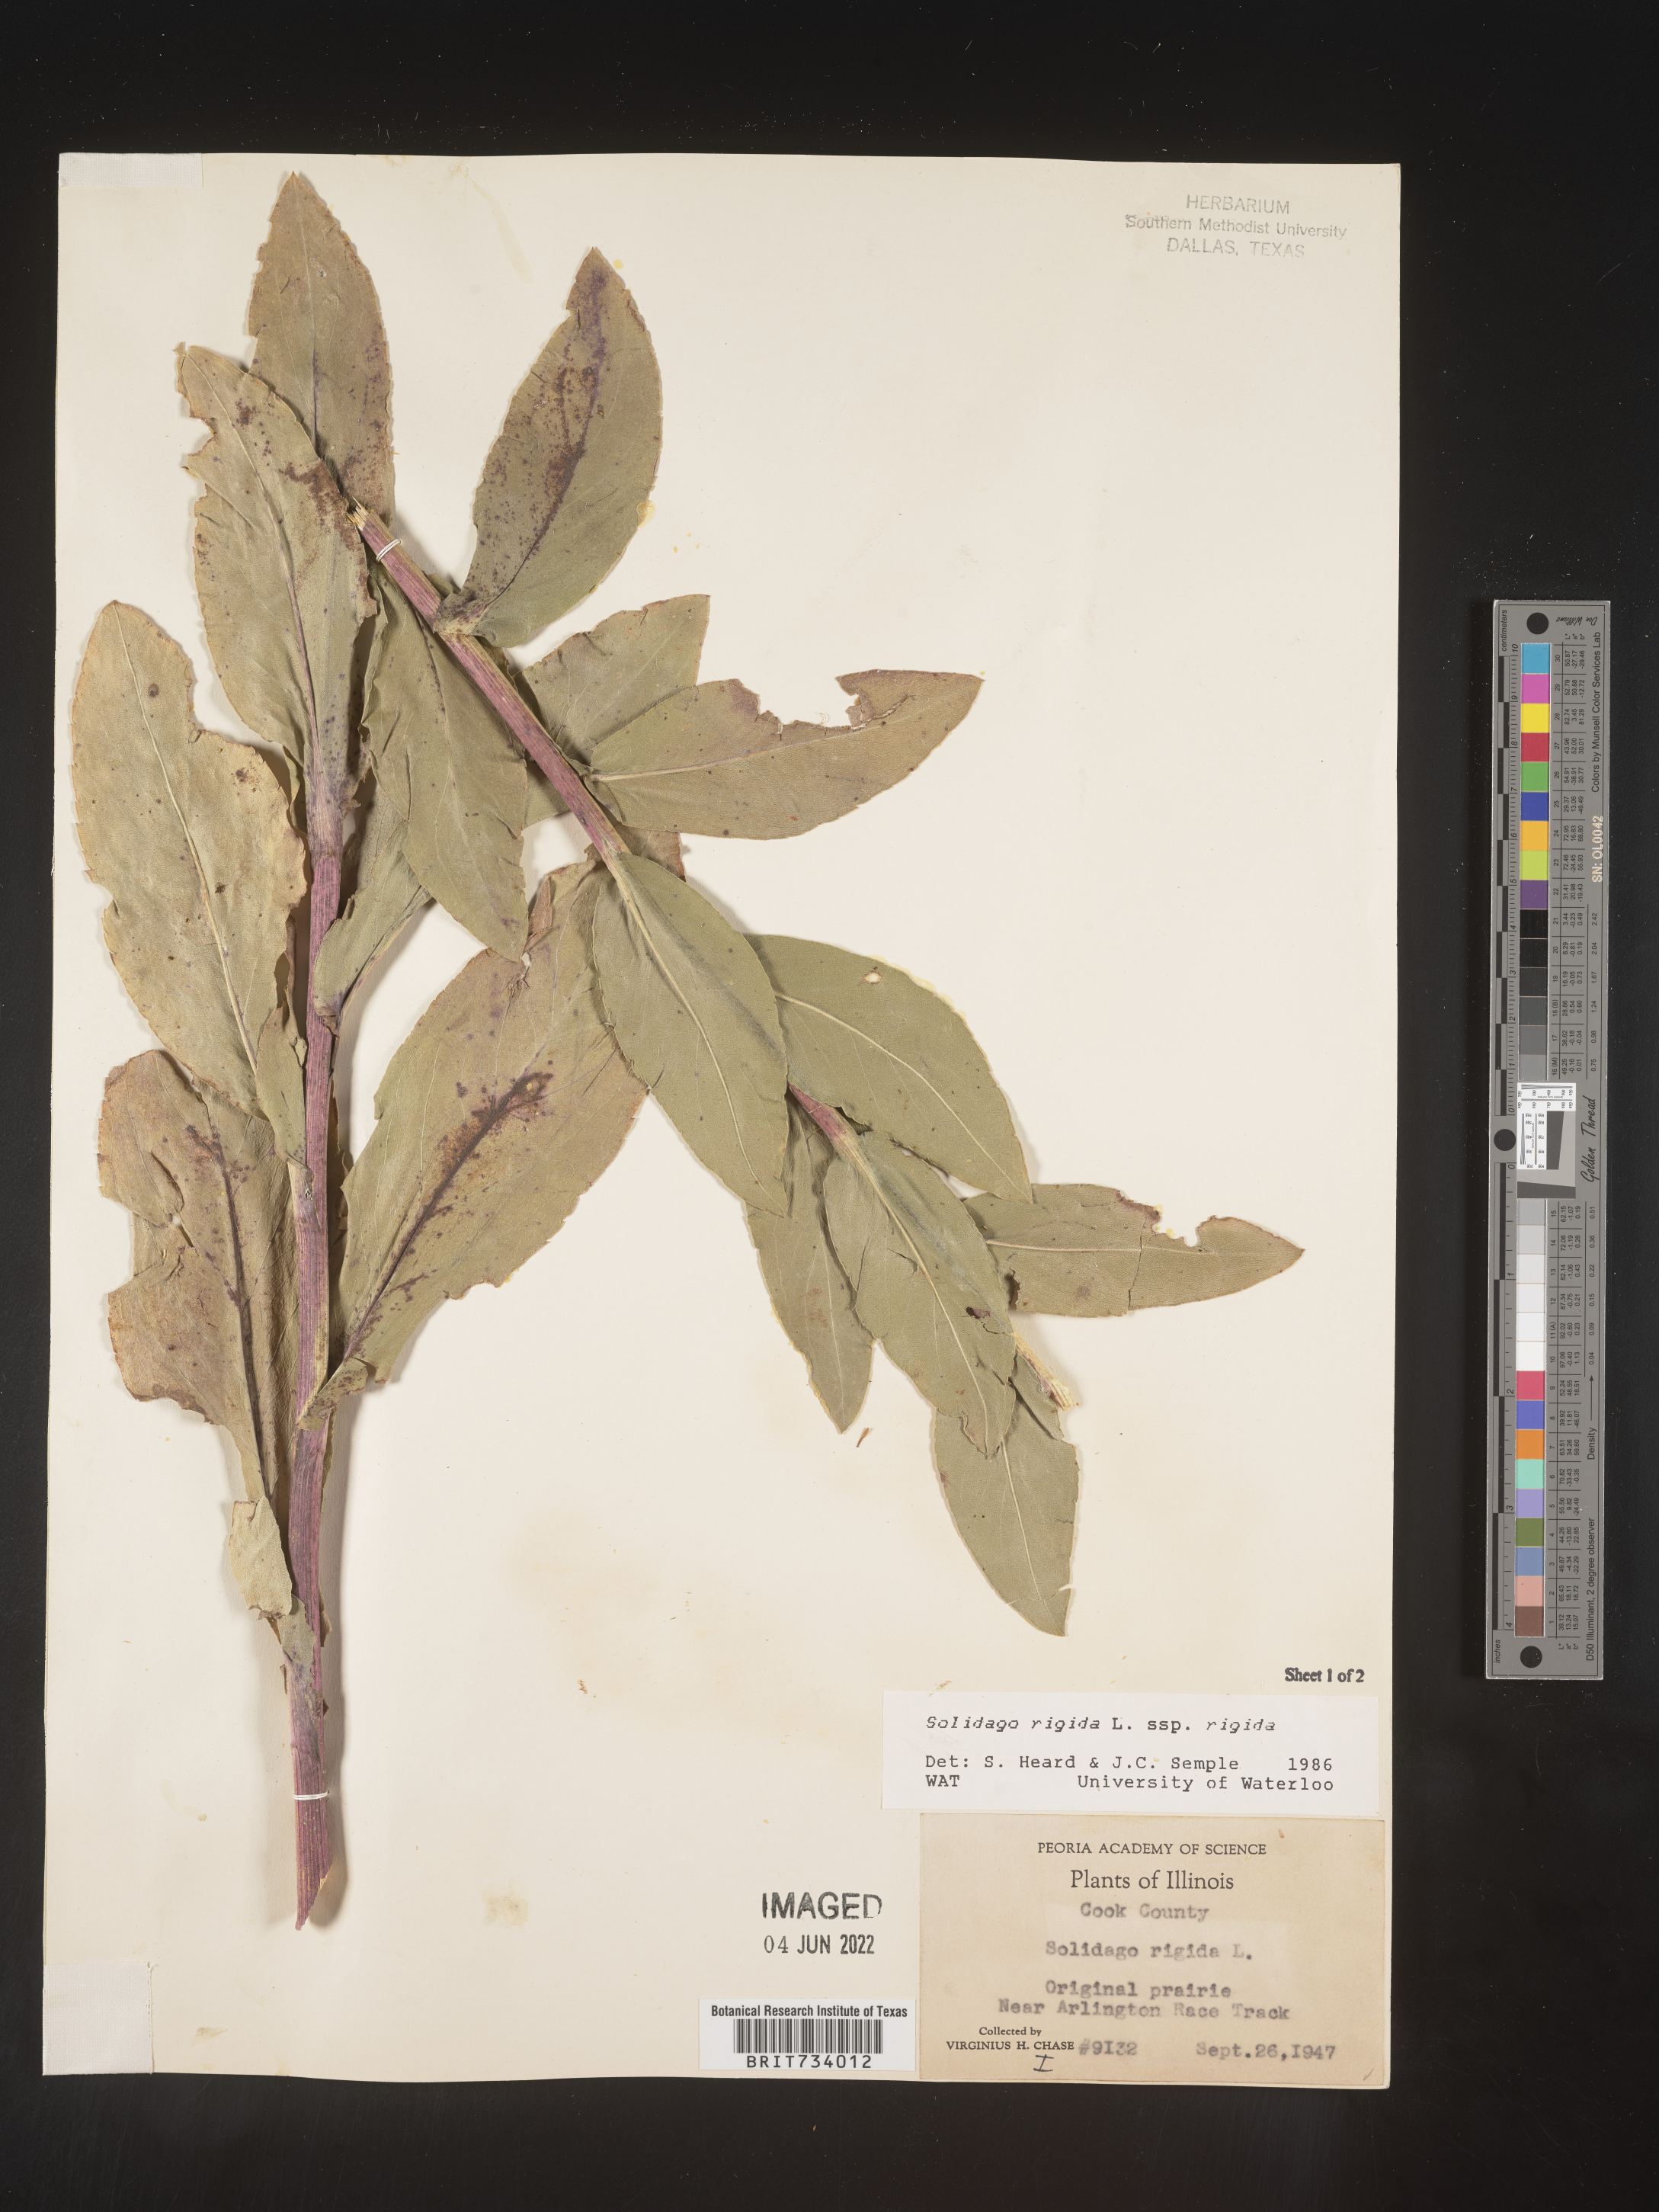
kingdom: Plantae
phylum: Tracheophyta
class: Magnoliopsida
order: Asterales
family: Asteraceae
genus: Solidago
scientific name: Solidago rigida
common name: Rigid goldenrod
